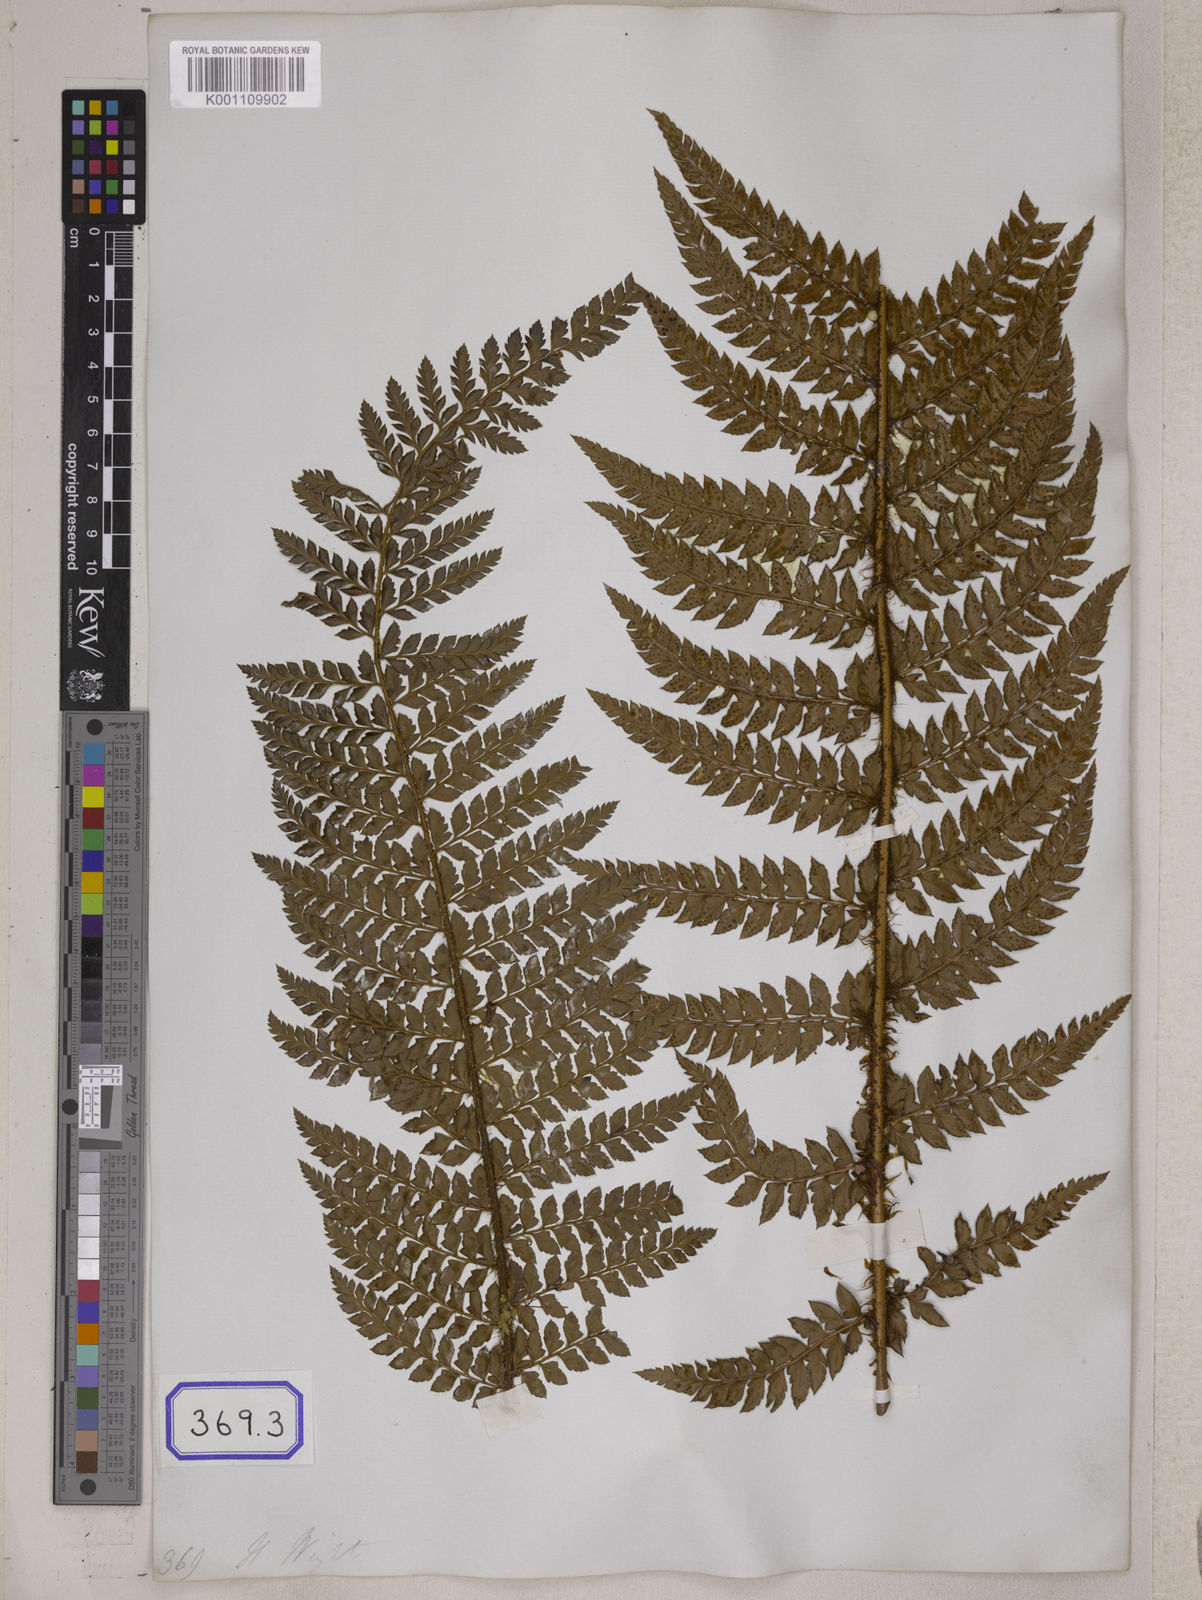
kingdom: Plantae
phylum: Tracheophyta
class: Polypodiopsida
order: Polypodiales
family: Dryopteridaceae
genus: Polystichum
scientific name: Polystichum squarrosum
